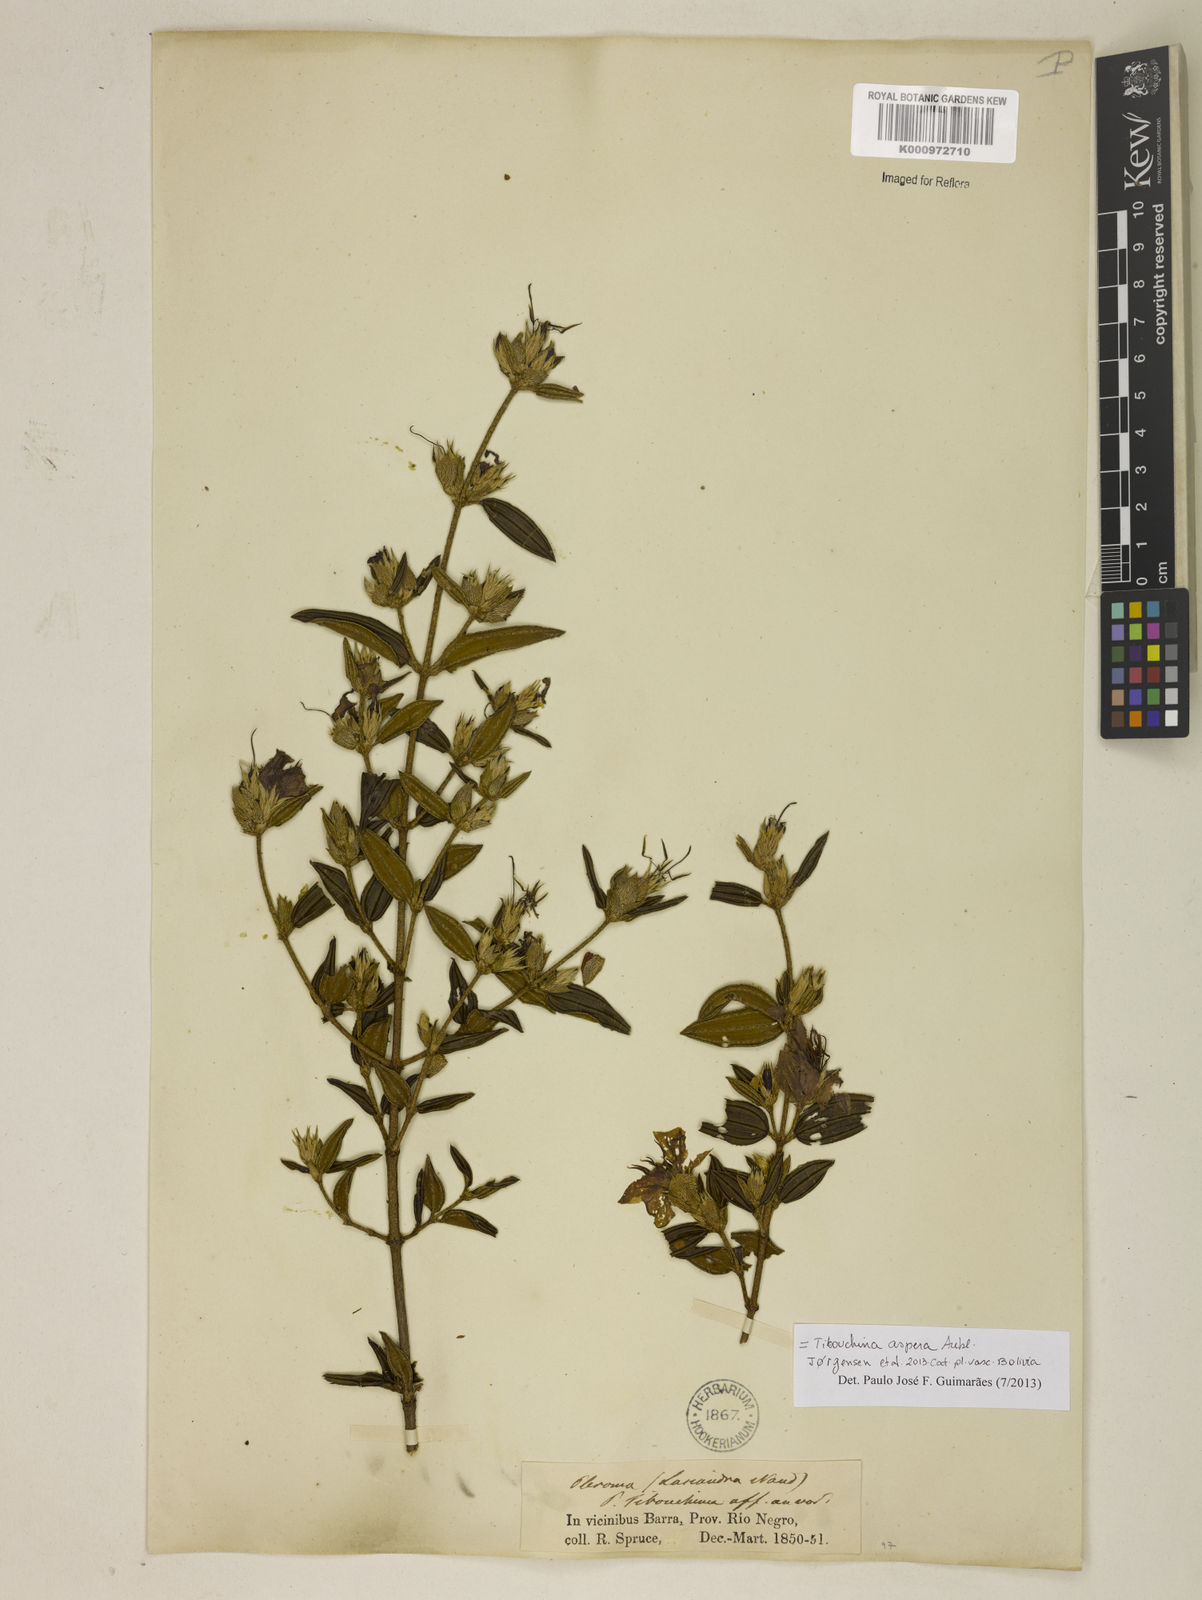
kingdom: Plantae
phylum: Tracheophyta
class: Magnoliopsida
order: Myrtales
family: Melastomataceae
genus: Tibouchina
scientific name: Tibouchina aspera
